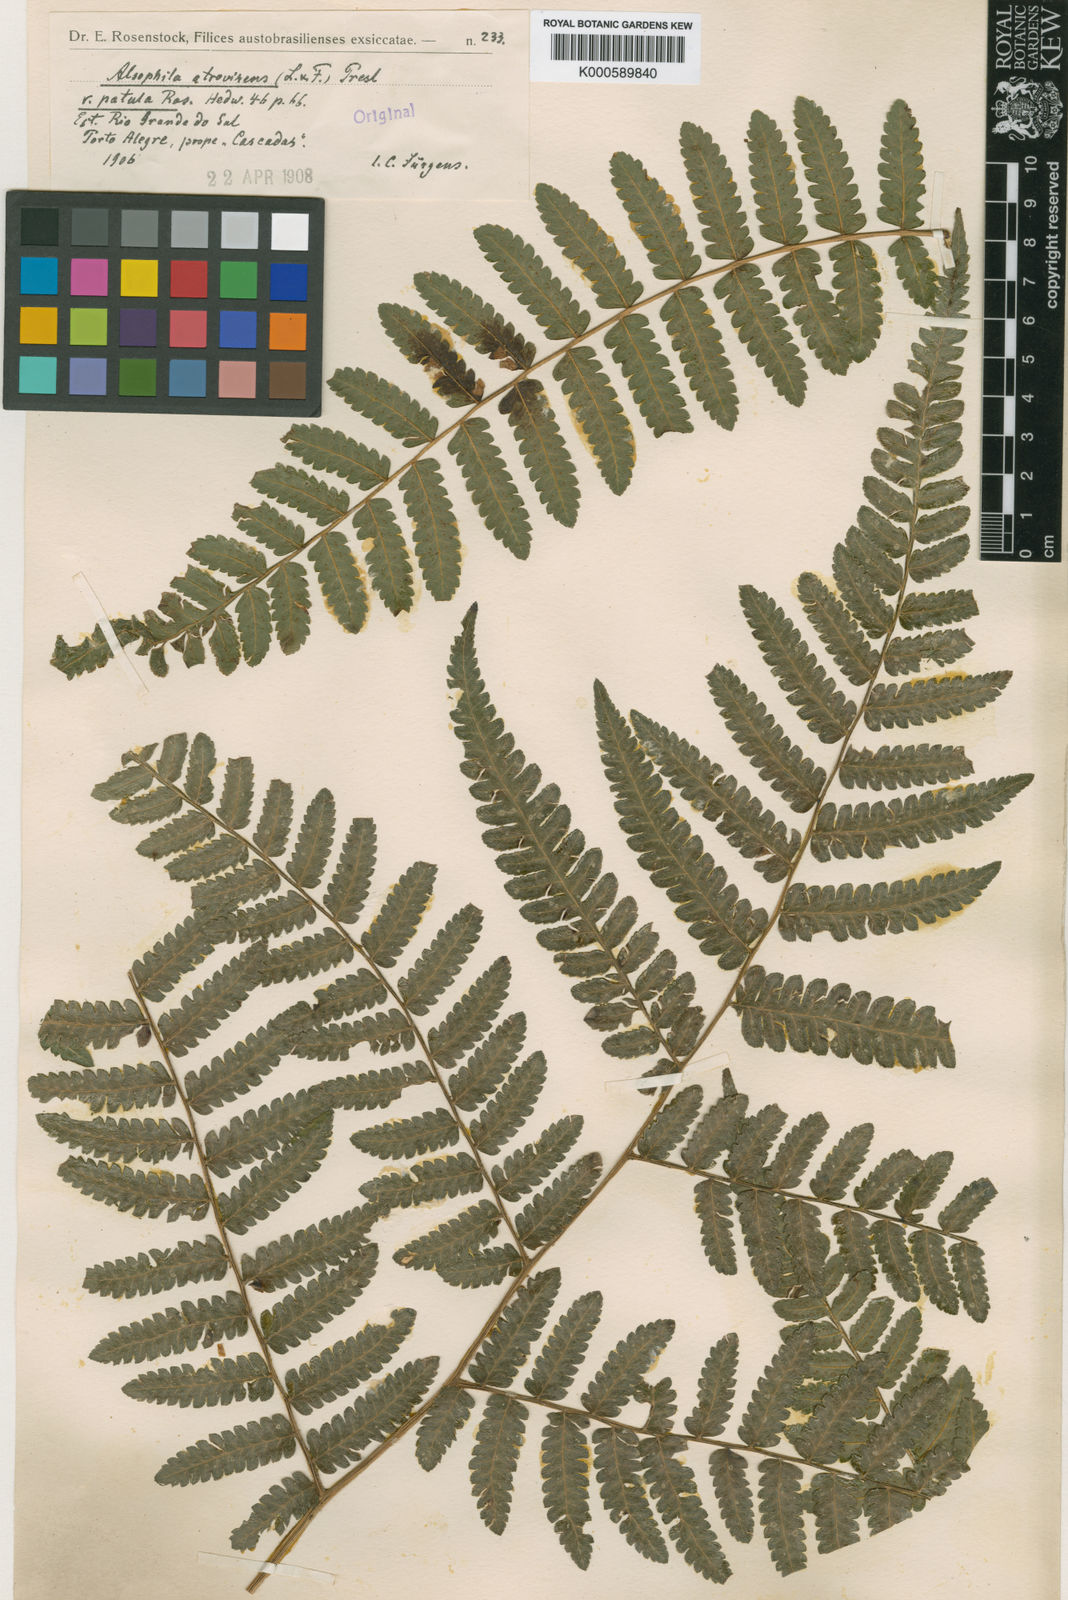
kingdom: Plantae
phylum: Tracheophyta
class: Polypodiopsida
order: Cyatheales
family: Cyatheaceae
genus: Cyathea
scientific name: Cyathea atrovirens
